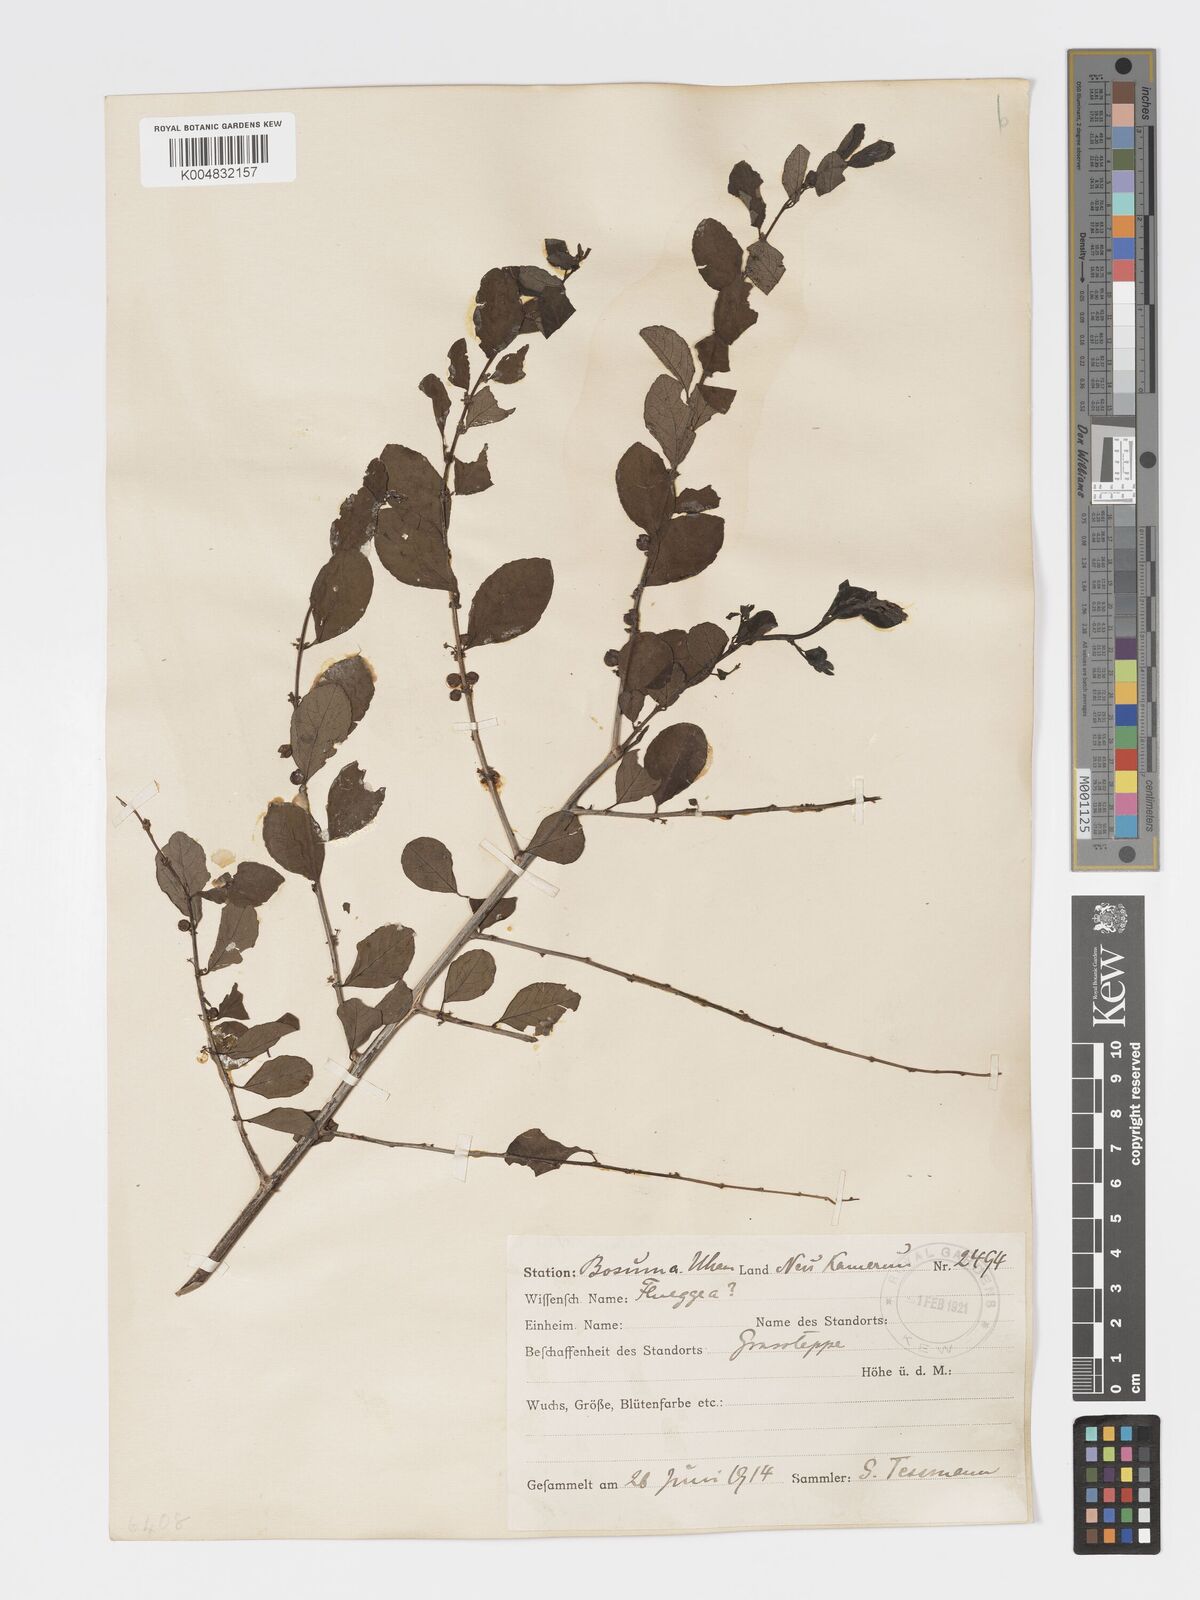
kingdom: Plantae
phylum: Tracheophyta
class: Magnoliopsida
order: Malpighiales
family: Phyllanthaceae
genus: Flueggea
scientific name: Flueggea virosa
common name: Common bushweed
